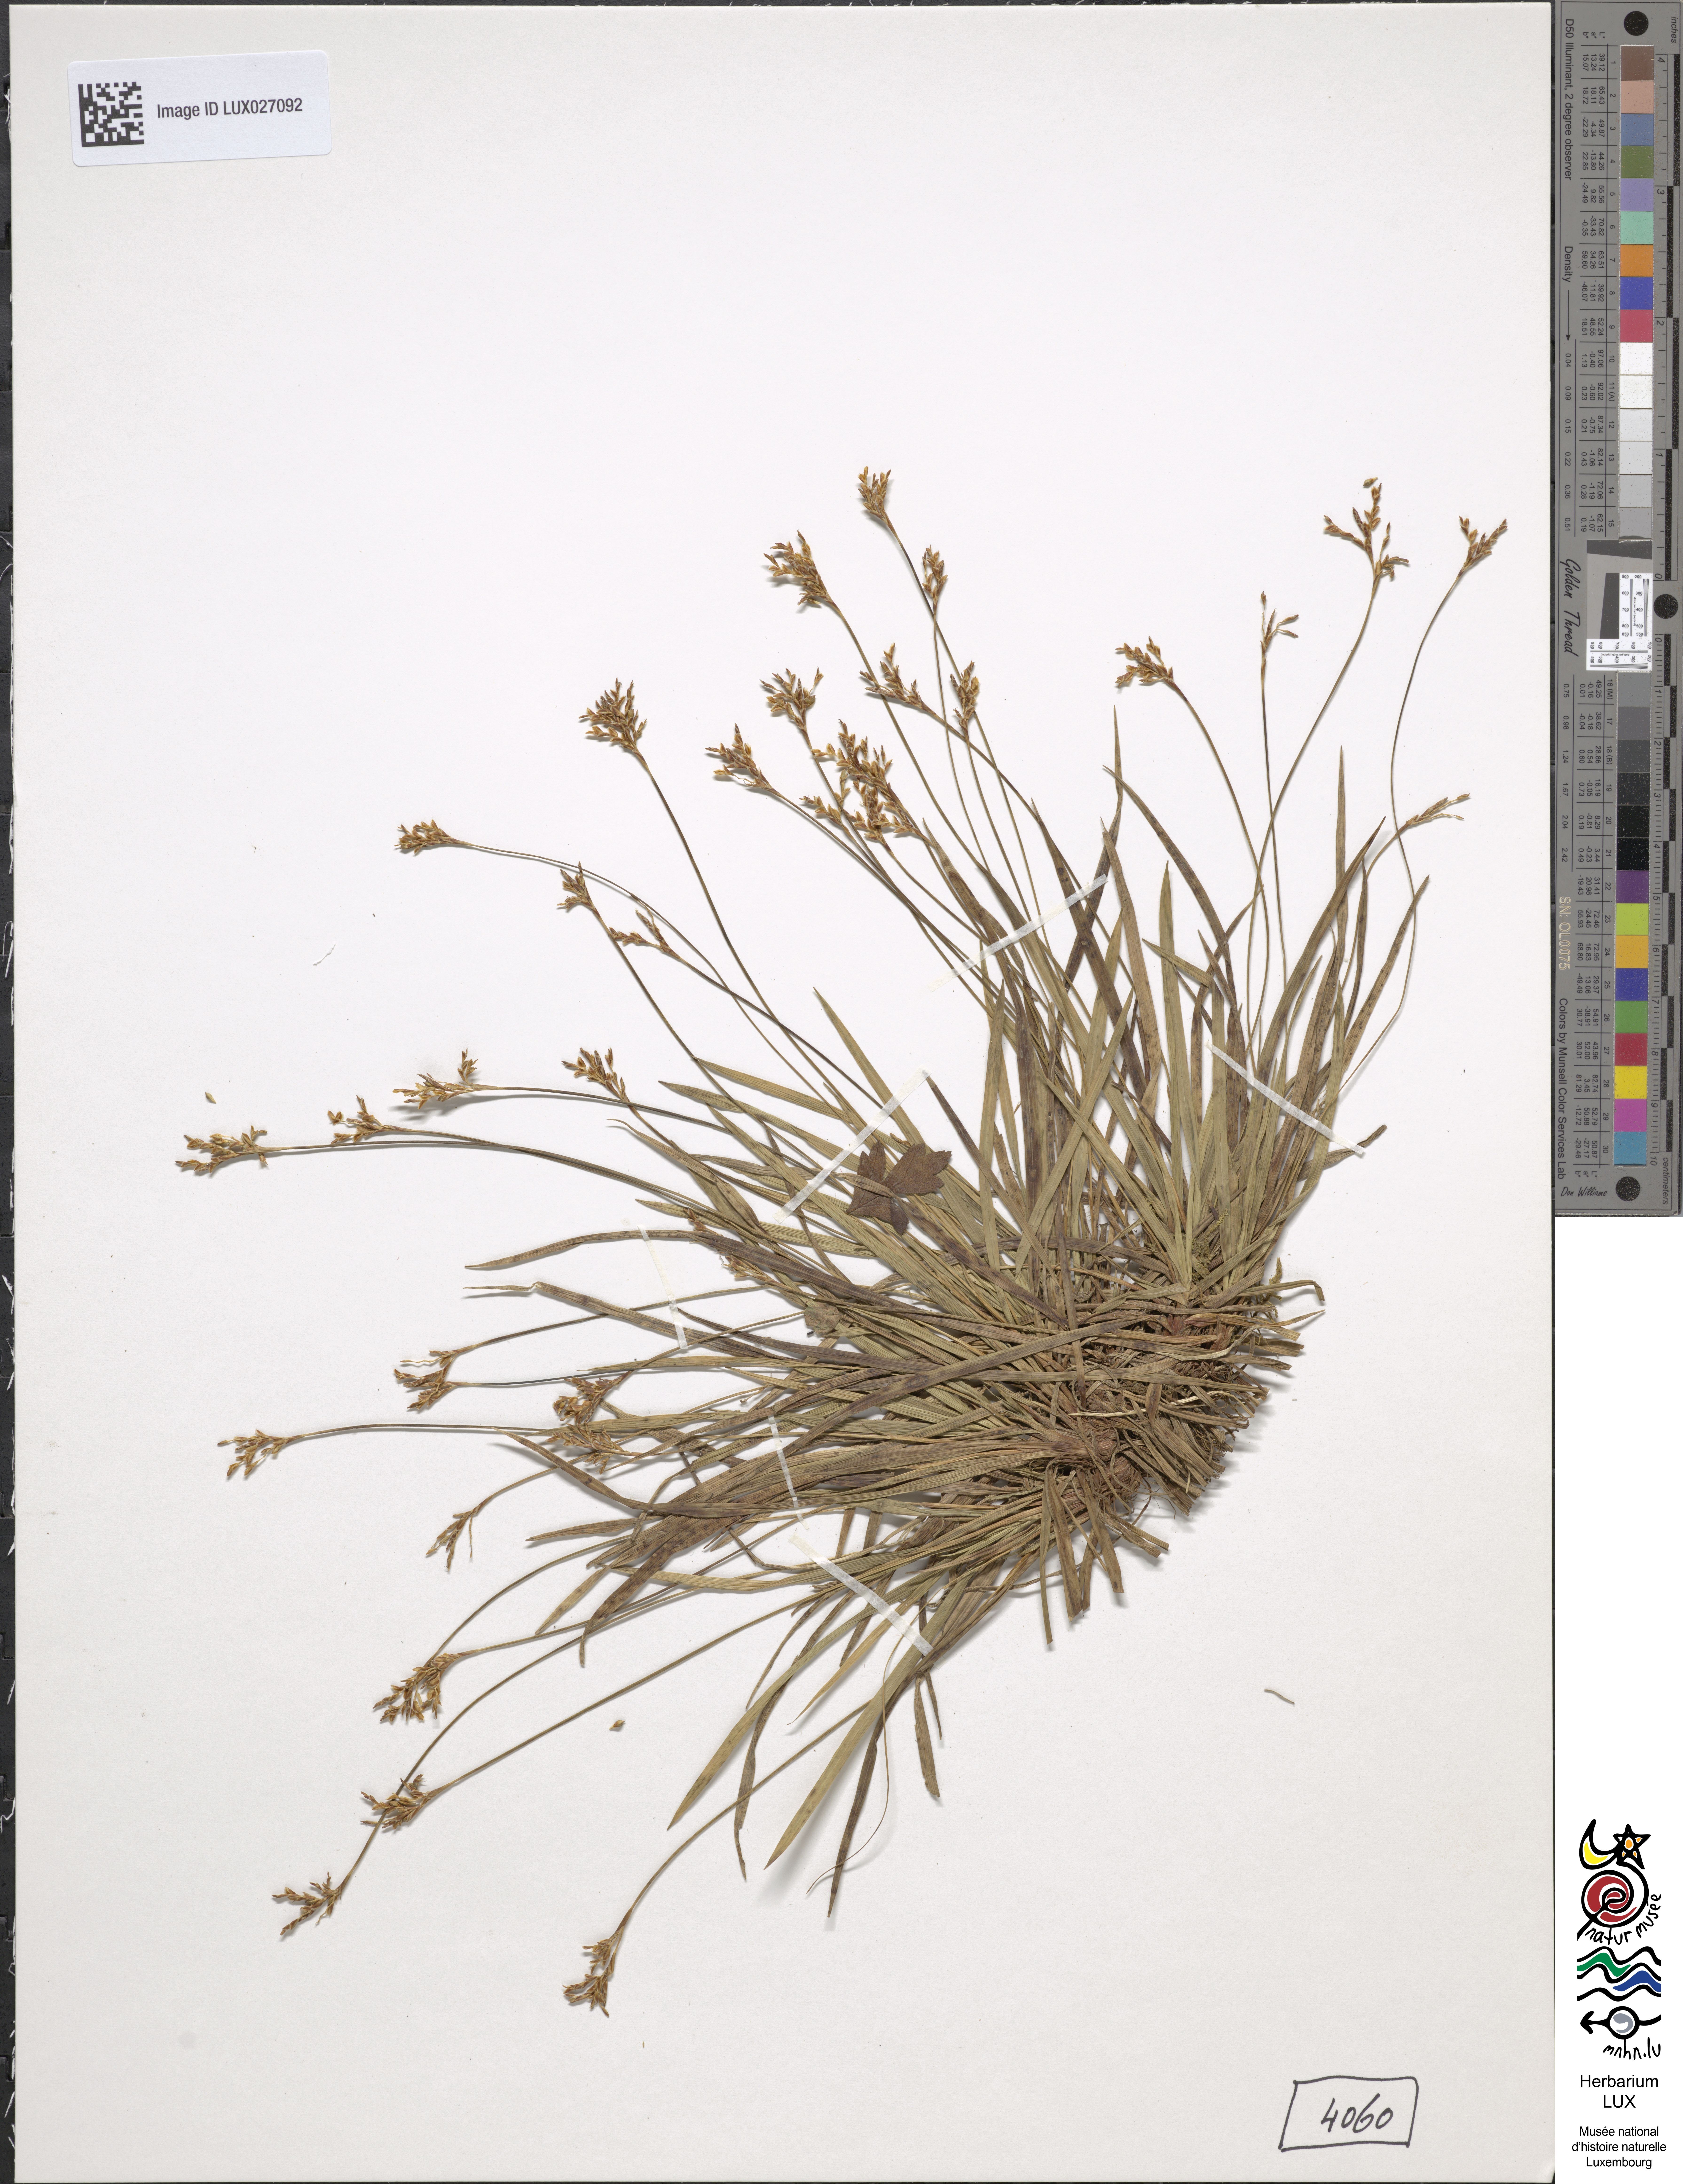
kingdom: Plantae
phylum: Tracheophyta
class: Liliopsida
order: Poales
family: Cyperaceae
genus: Carex
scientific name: Carex ornithopoda
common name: Bird's-foot sedge
